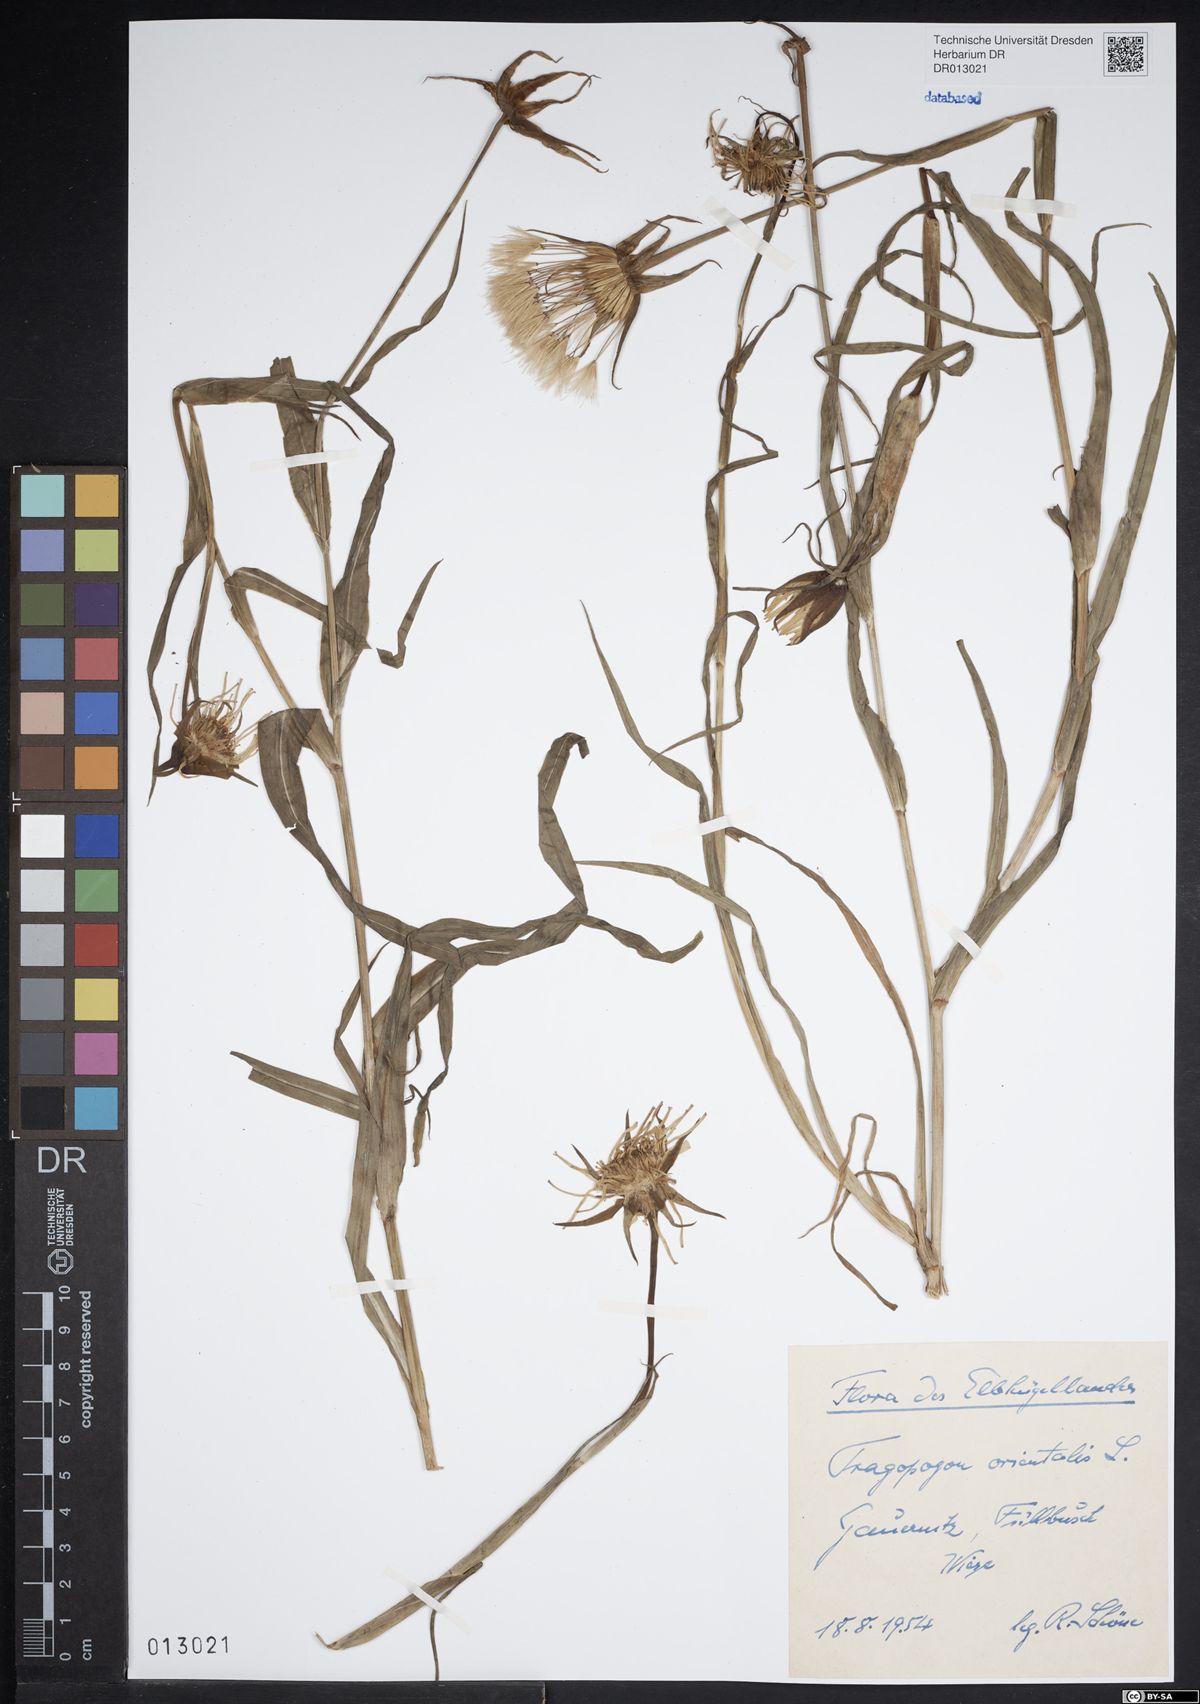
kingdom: Plantae
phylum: Tracheophyta
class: Magnoliopsida
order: Asterales
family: Asteraceae
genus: Tragopogon
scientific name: Tragopogon orientalis
